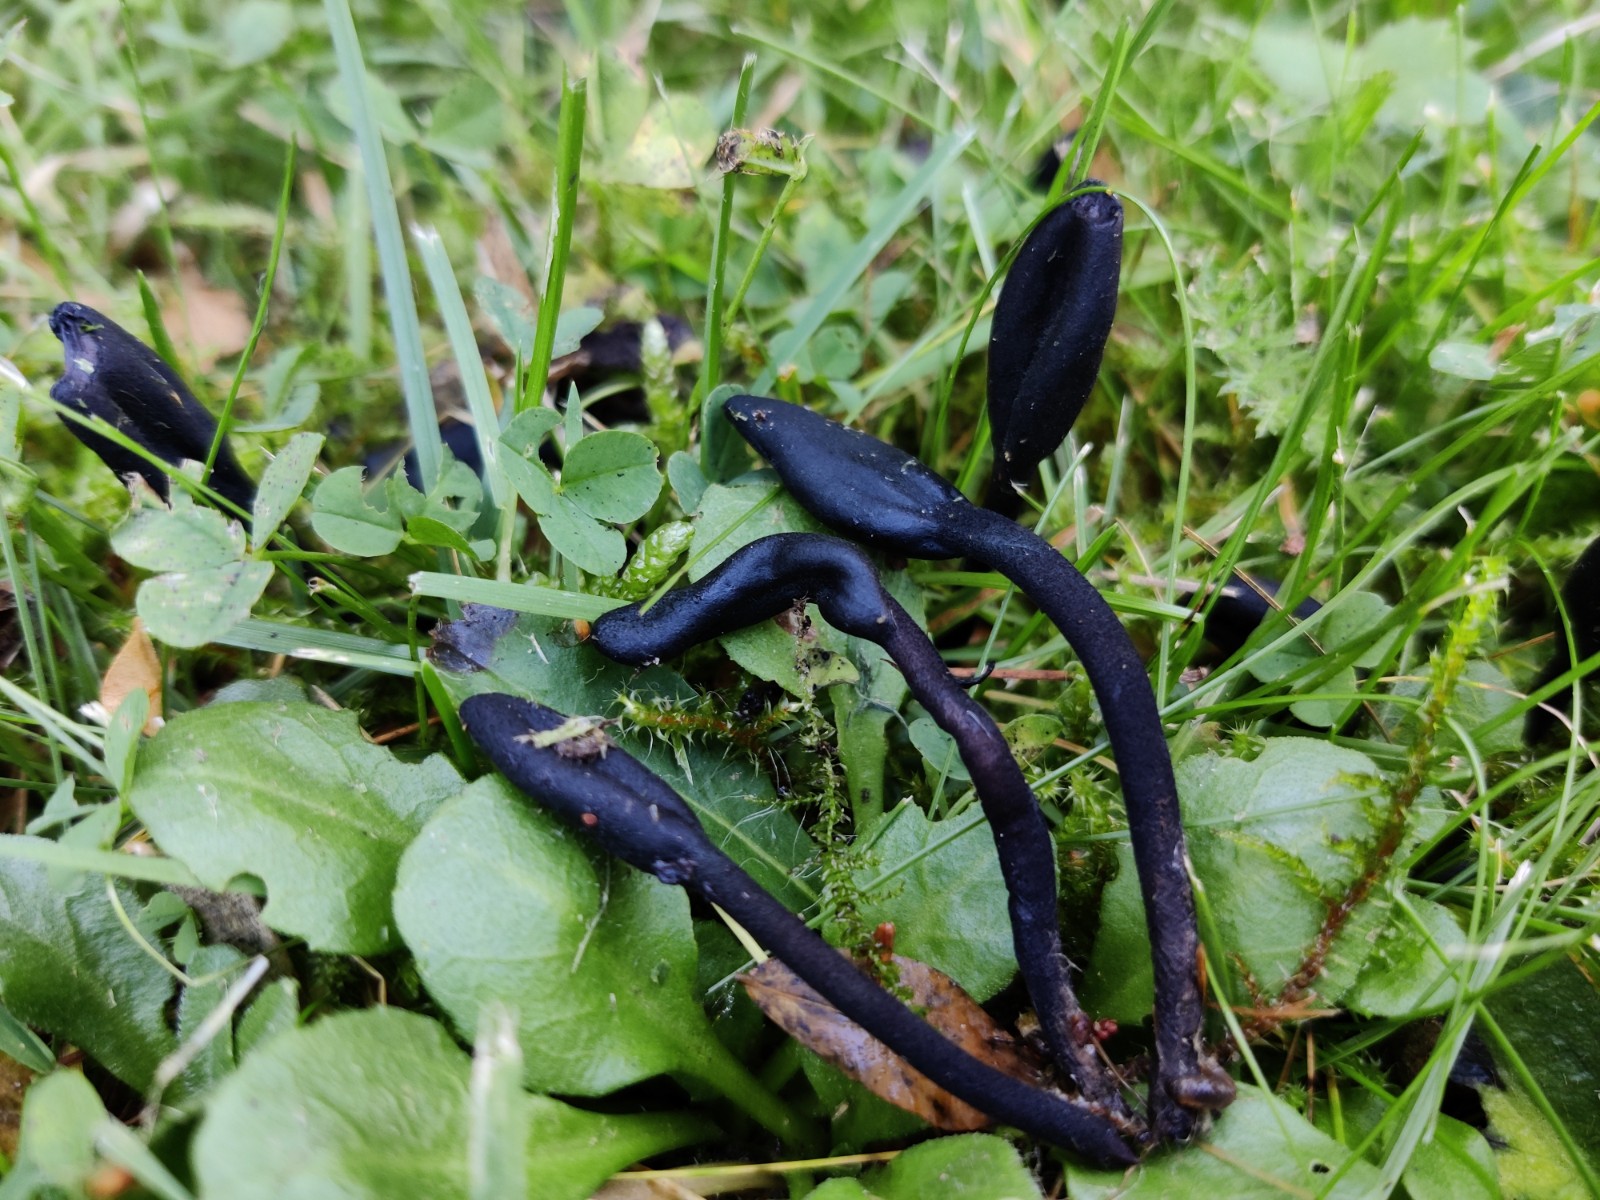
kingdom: Fungi
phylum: Ascomycota
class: Geoglossomycetes
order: Geoglossales
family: Geoglossaceae
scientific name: Geoglossaceae
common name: jordtungefamilien
